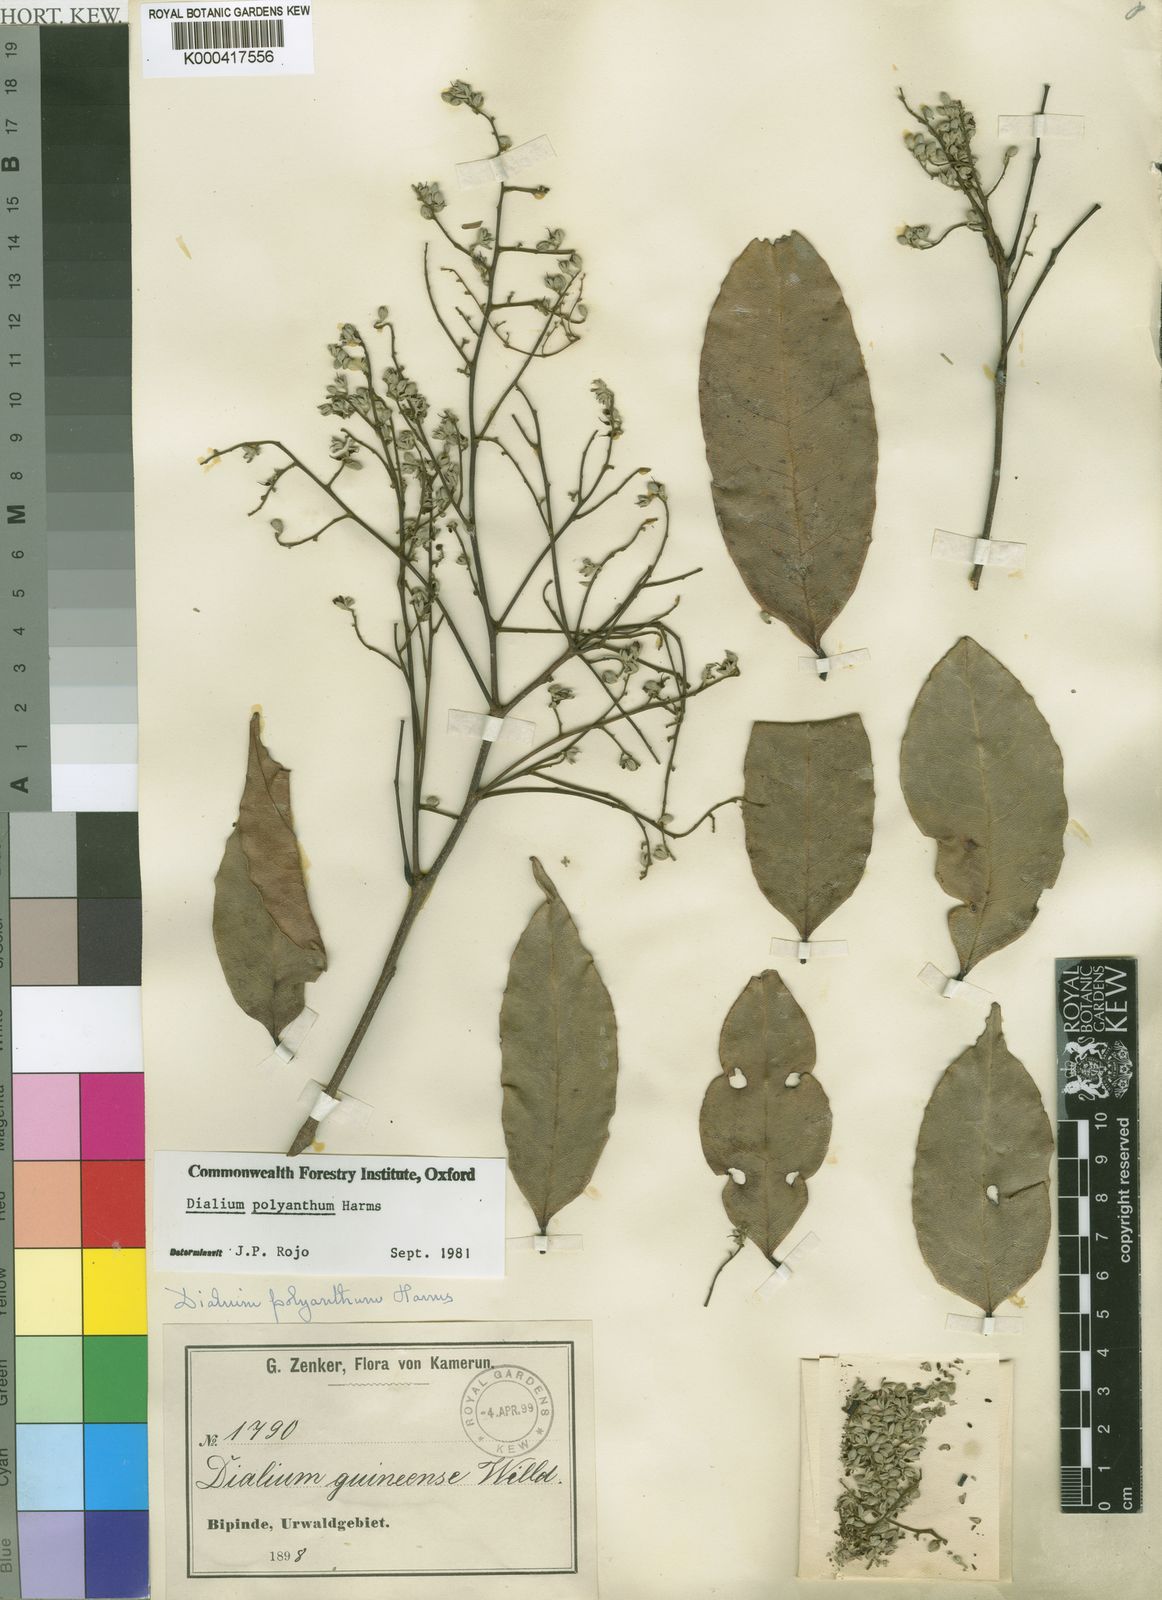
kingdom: Plantae
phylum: Tracheophyta
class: Magnoliopsida
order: Fabales
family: Fabaceae
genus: Dialium
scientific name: Dialium polyanthum
